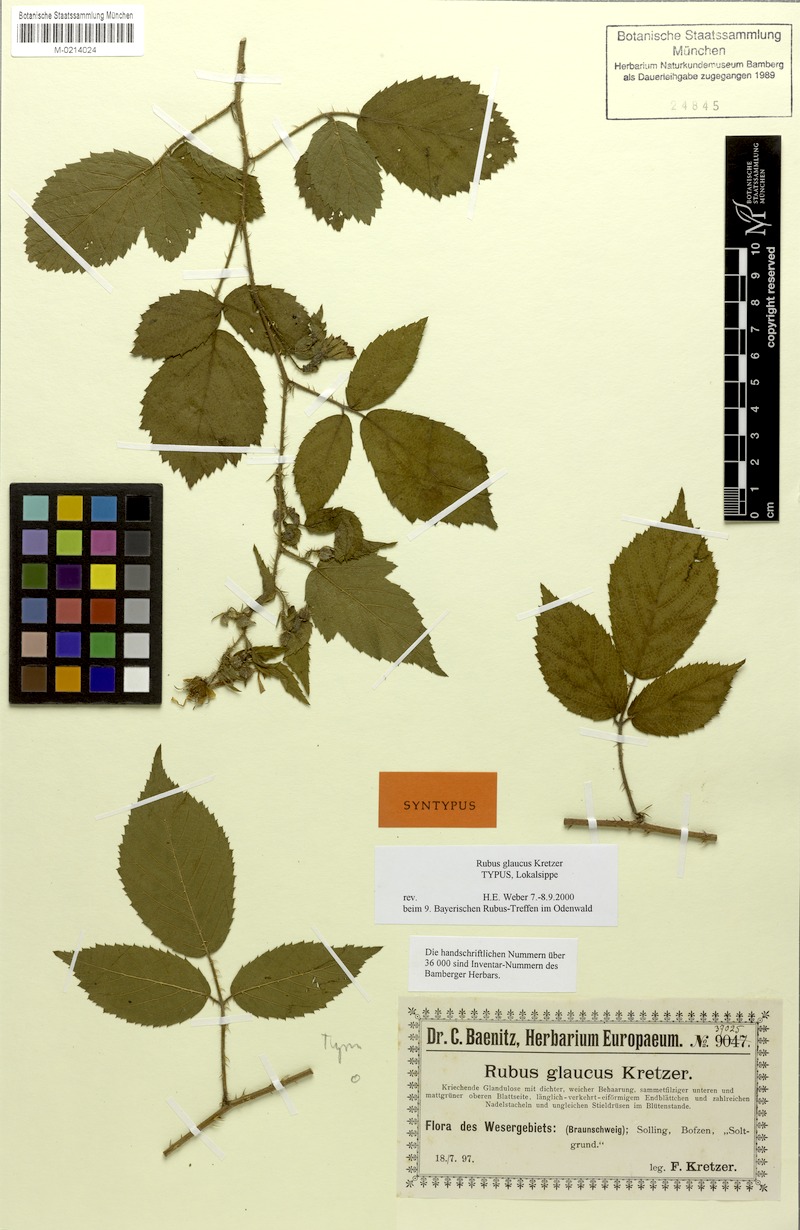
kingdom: Plantae
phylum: Tracheophyta
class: Magnoliopsida
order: Rosales
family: Rosaceae
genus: Rubus
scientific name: Rubus glaucus
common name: Andean blackberry
